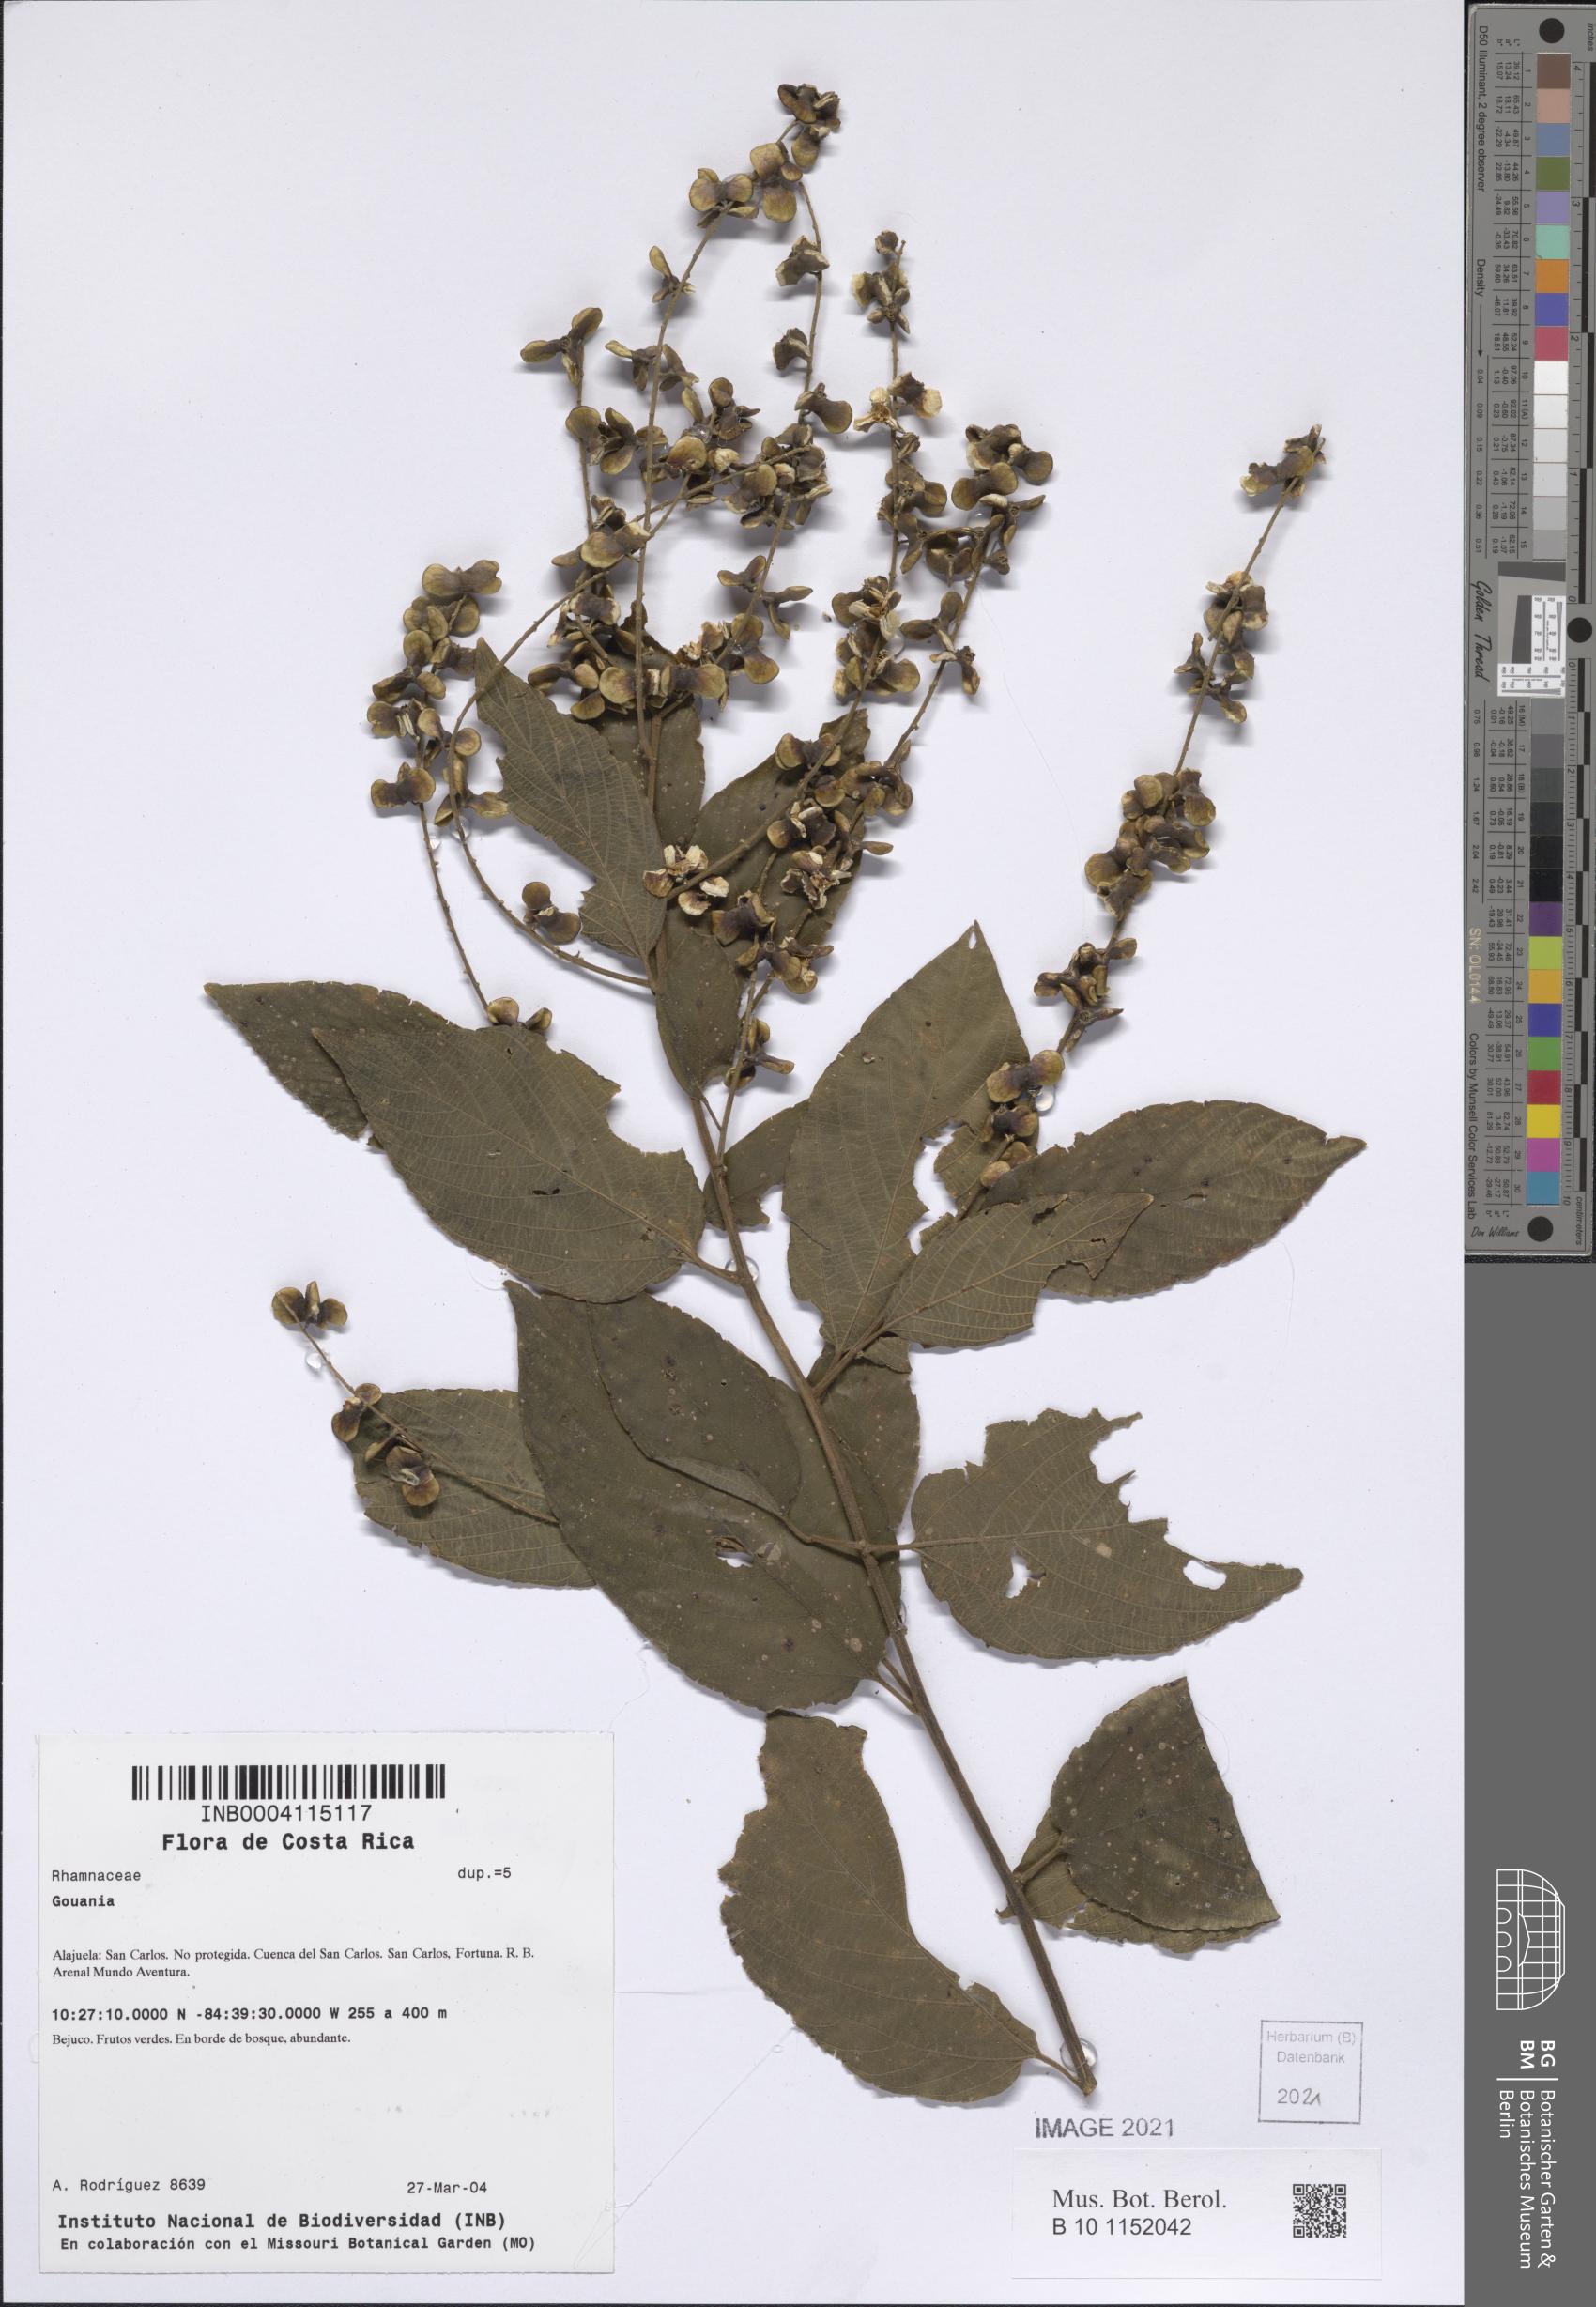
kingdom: Plantae
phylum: Tracheophyta
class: Magnoliopsida
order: Rosales
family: Rhamnaceae
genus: Gouania
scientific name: Gouania polygama
